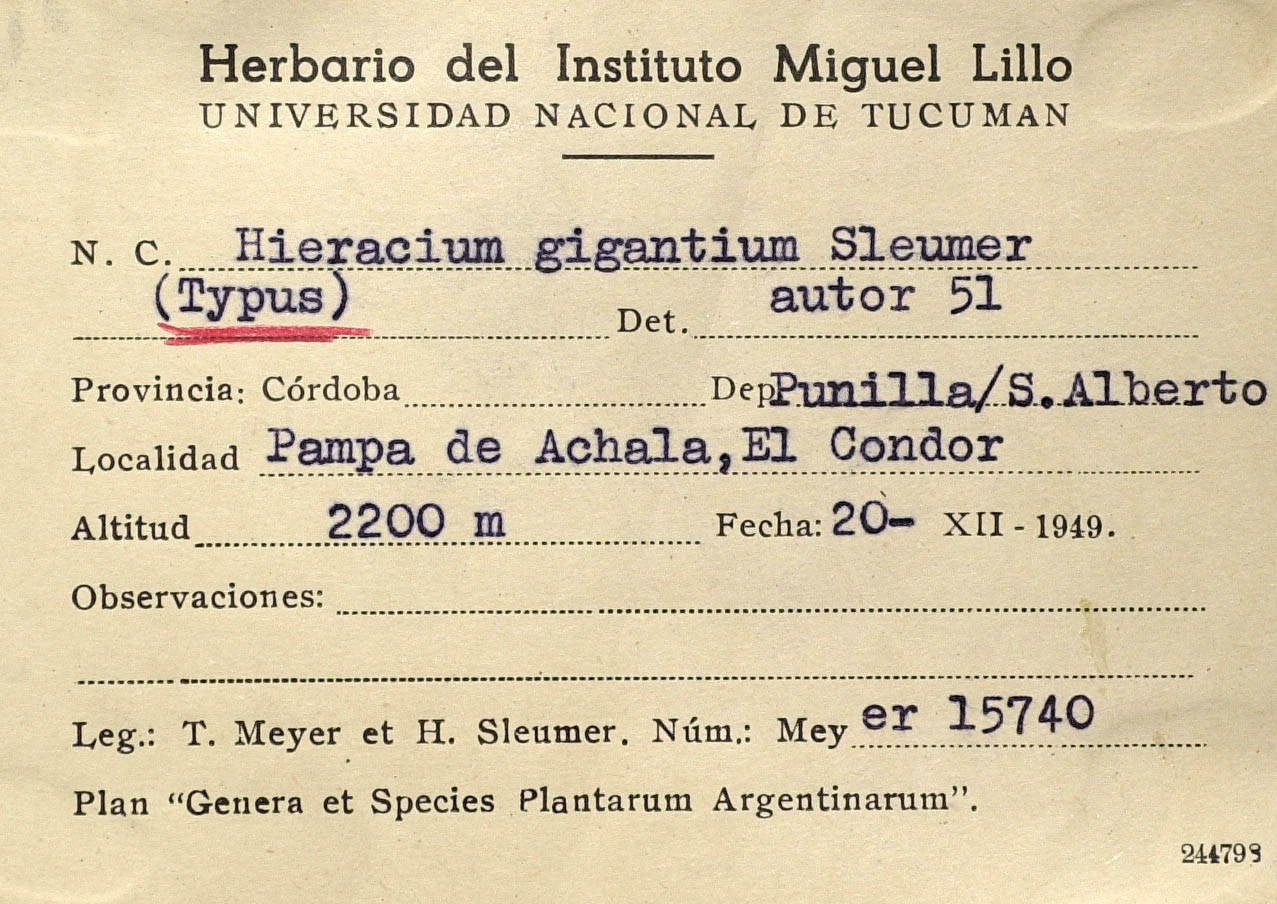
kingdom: Plantae
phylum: Tracheophyta
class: Magnoliopsida
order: Asterales
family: Asteraceae
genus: Hieracium
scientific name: Hieracium gigantium
